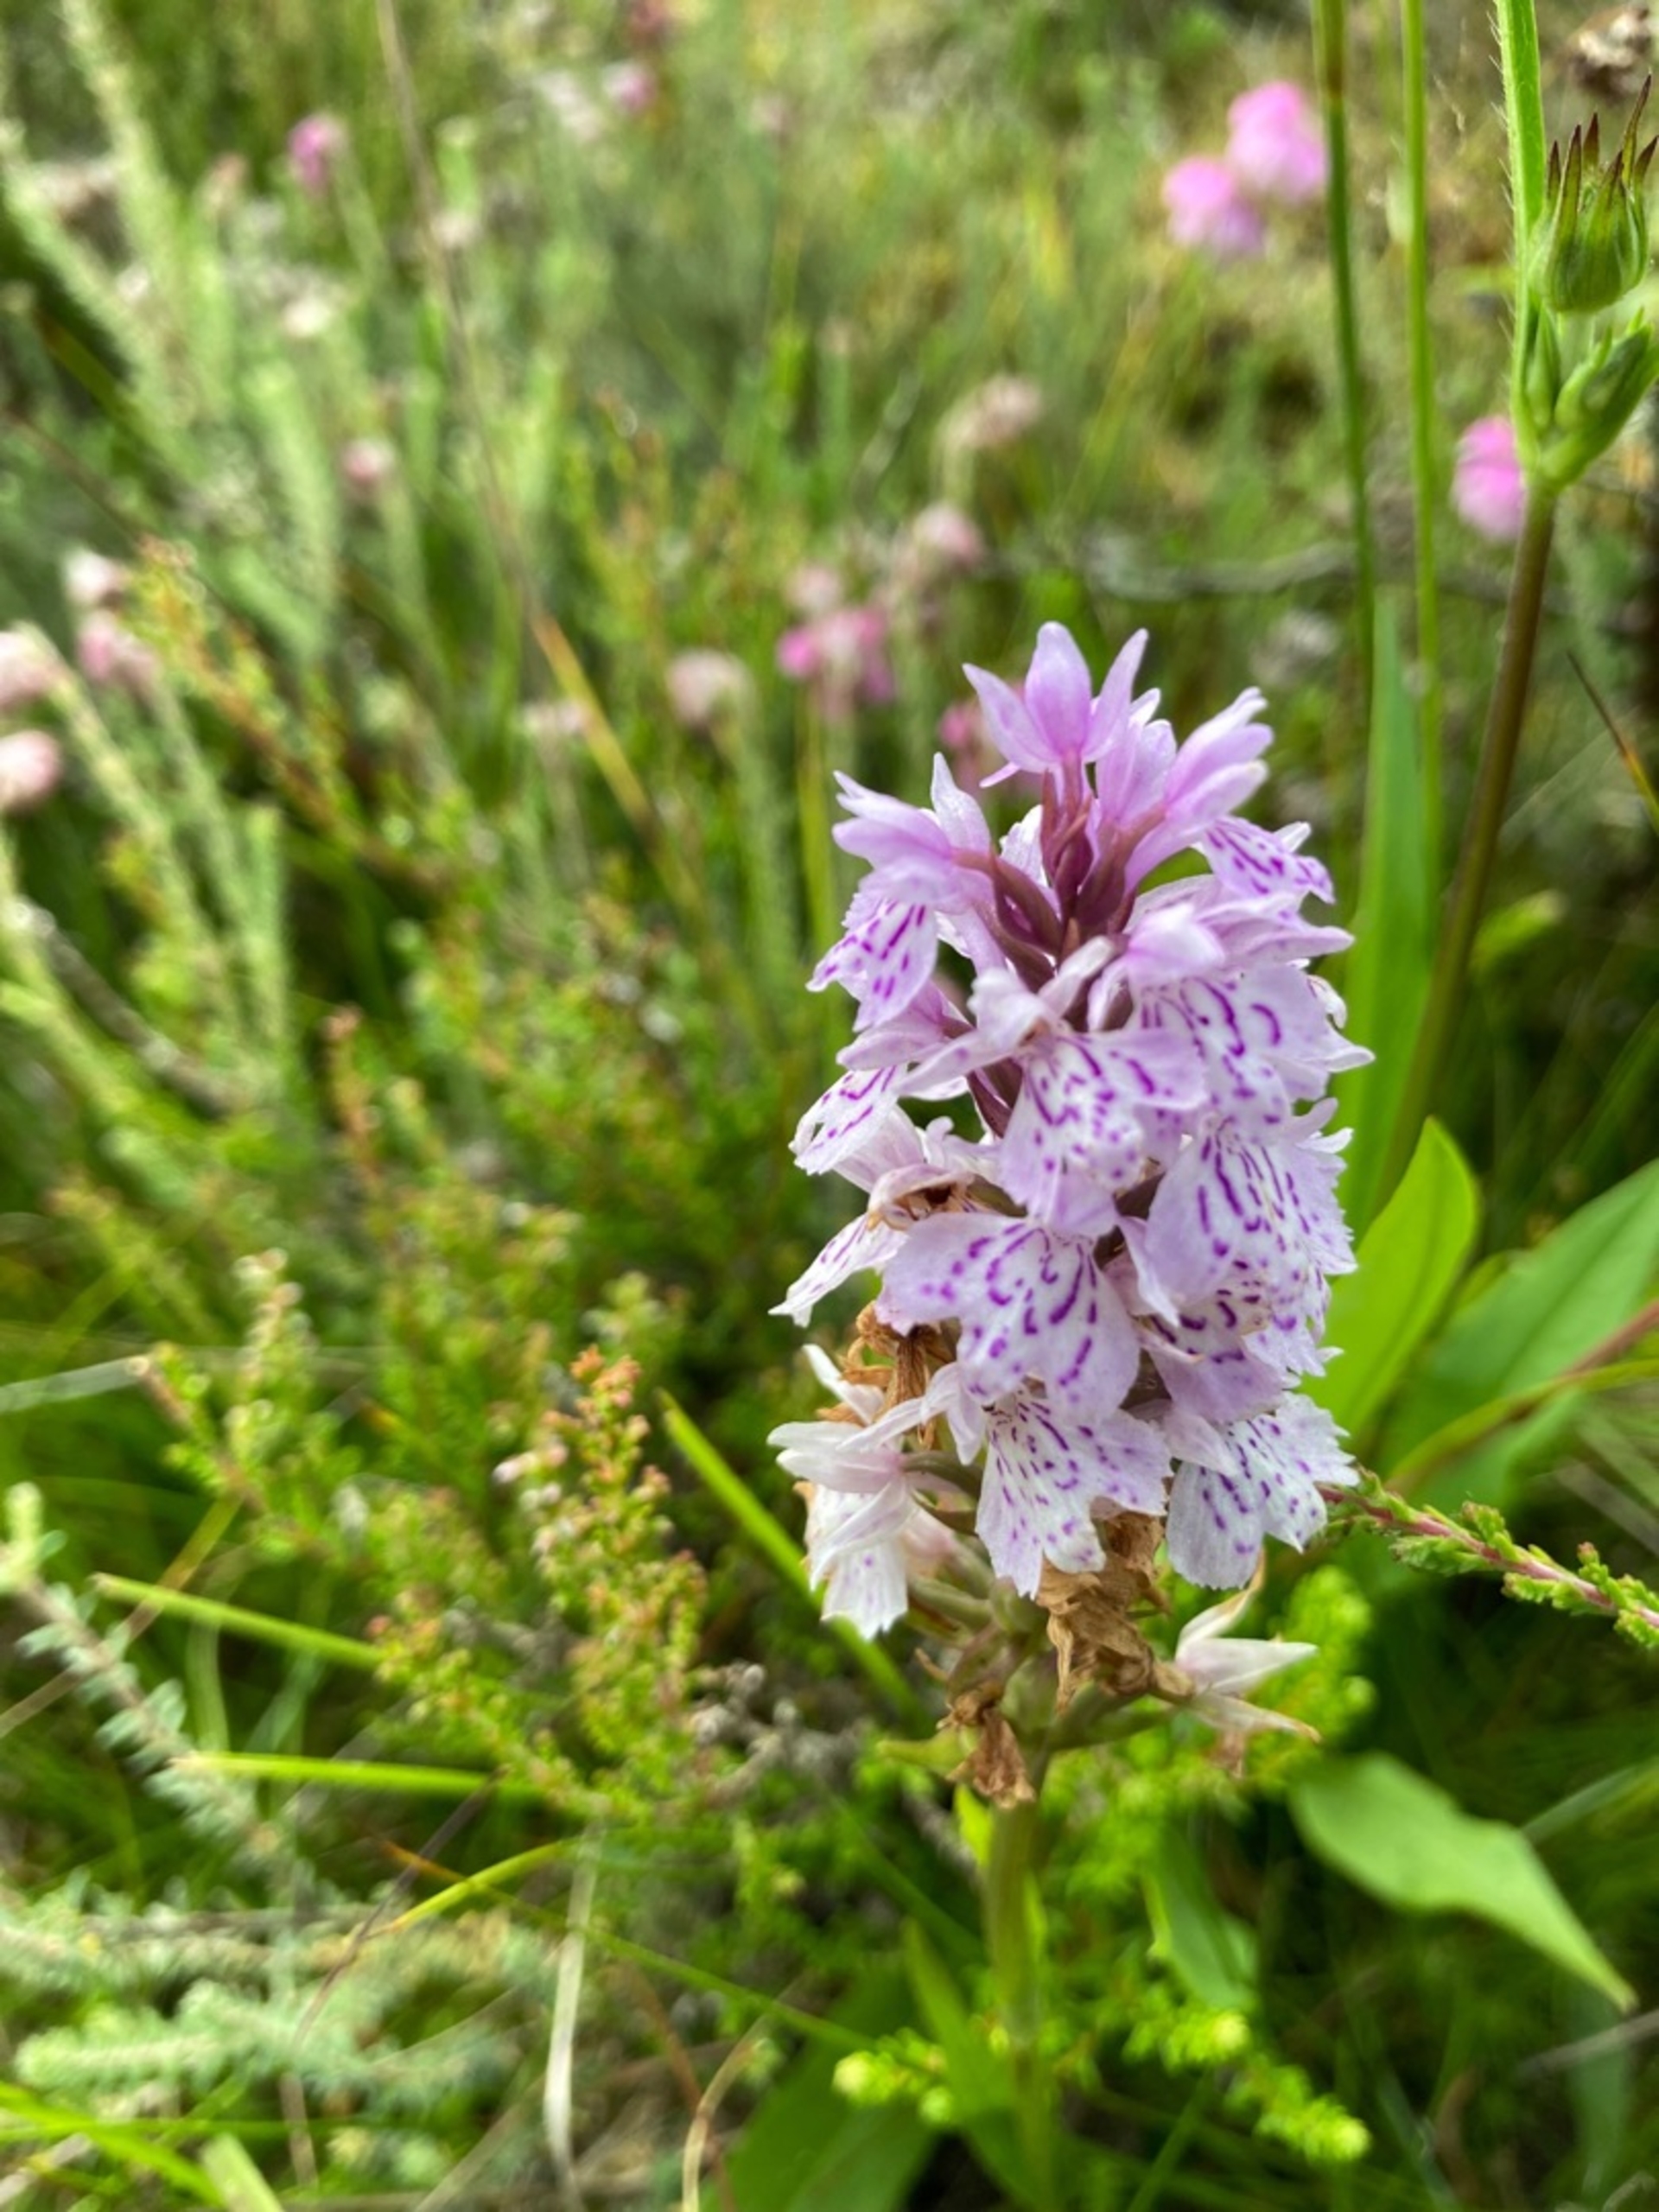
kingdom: Plantae
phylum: Tracheophyta
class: Liliopsida
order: Asparagales
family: Orchidaceae
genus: Dactylorhiza
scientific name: Dactylorhiza
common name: Gøgeurt (Dactylorhiza-slægten)
